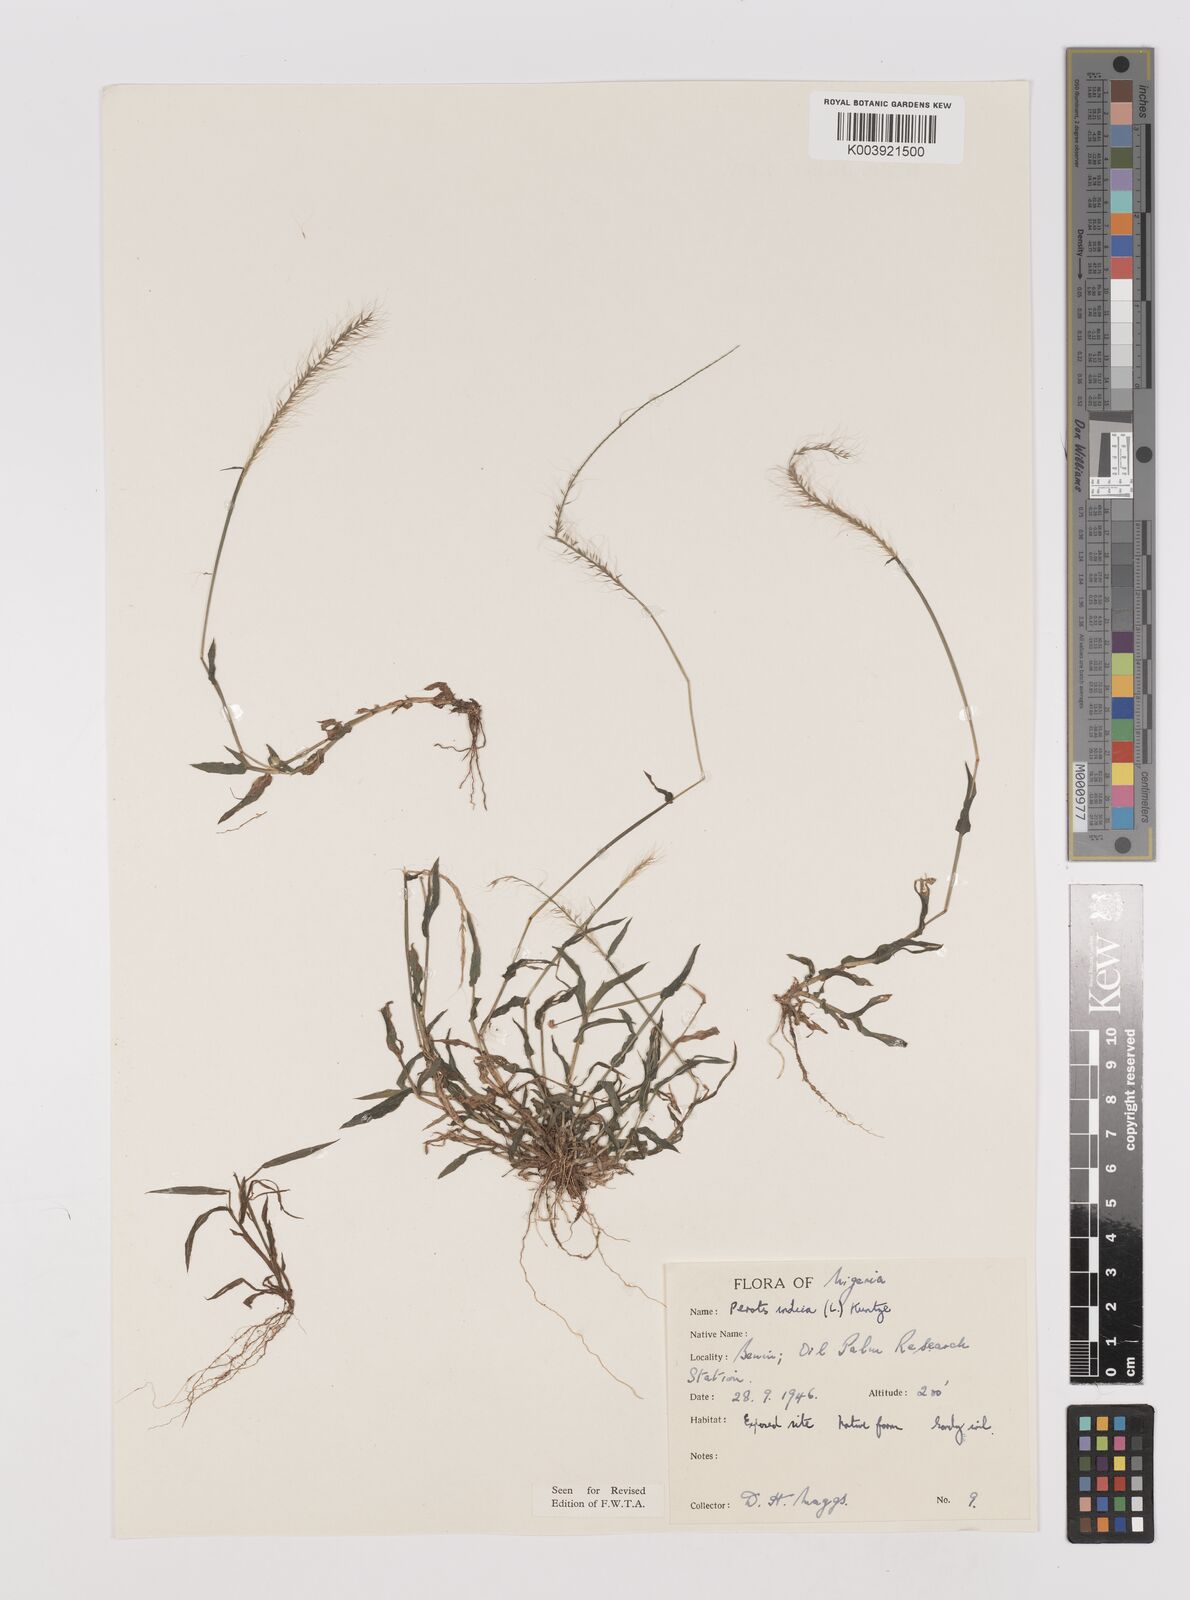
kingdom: Plantae
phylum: Tracheophyta
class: Liliopsida
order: Poales
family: Poaceae
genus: Perotis
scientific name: Perotis indica
